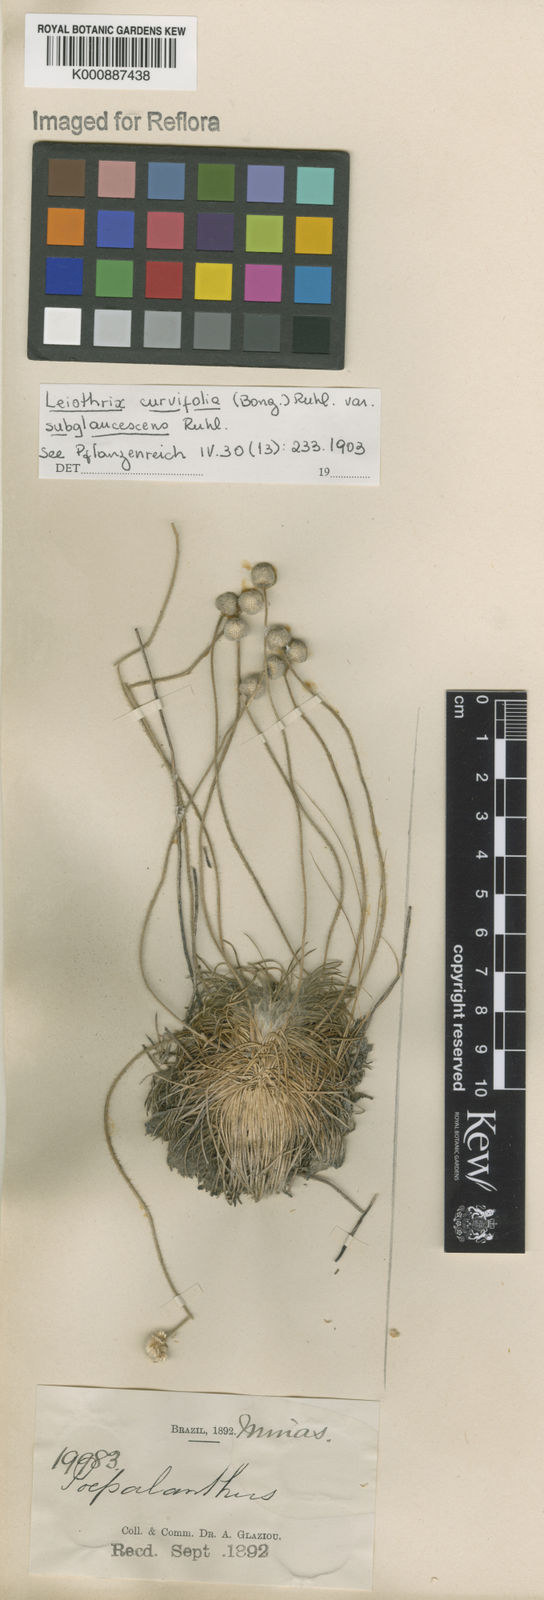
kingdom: Plantae
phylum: Tracheophyta
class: Liliopsida
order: Poales
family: Eriocaulaceae
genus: Leiothrix
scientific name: Leiothrix curvifolia
